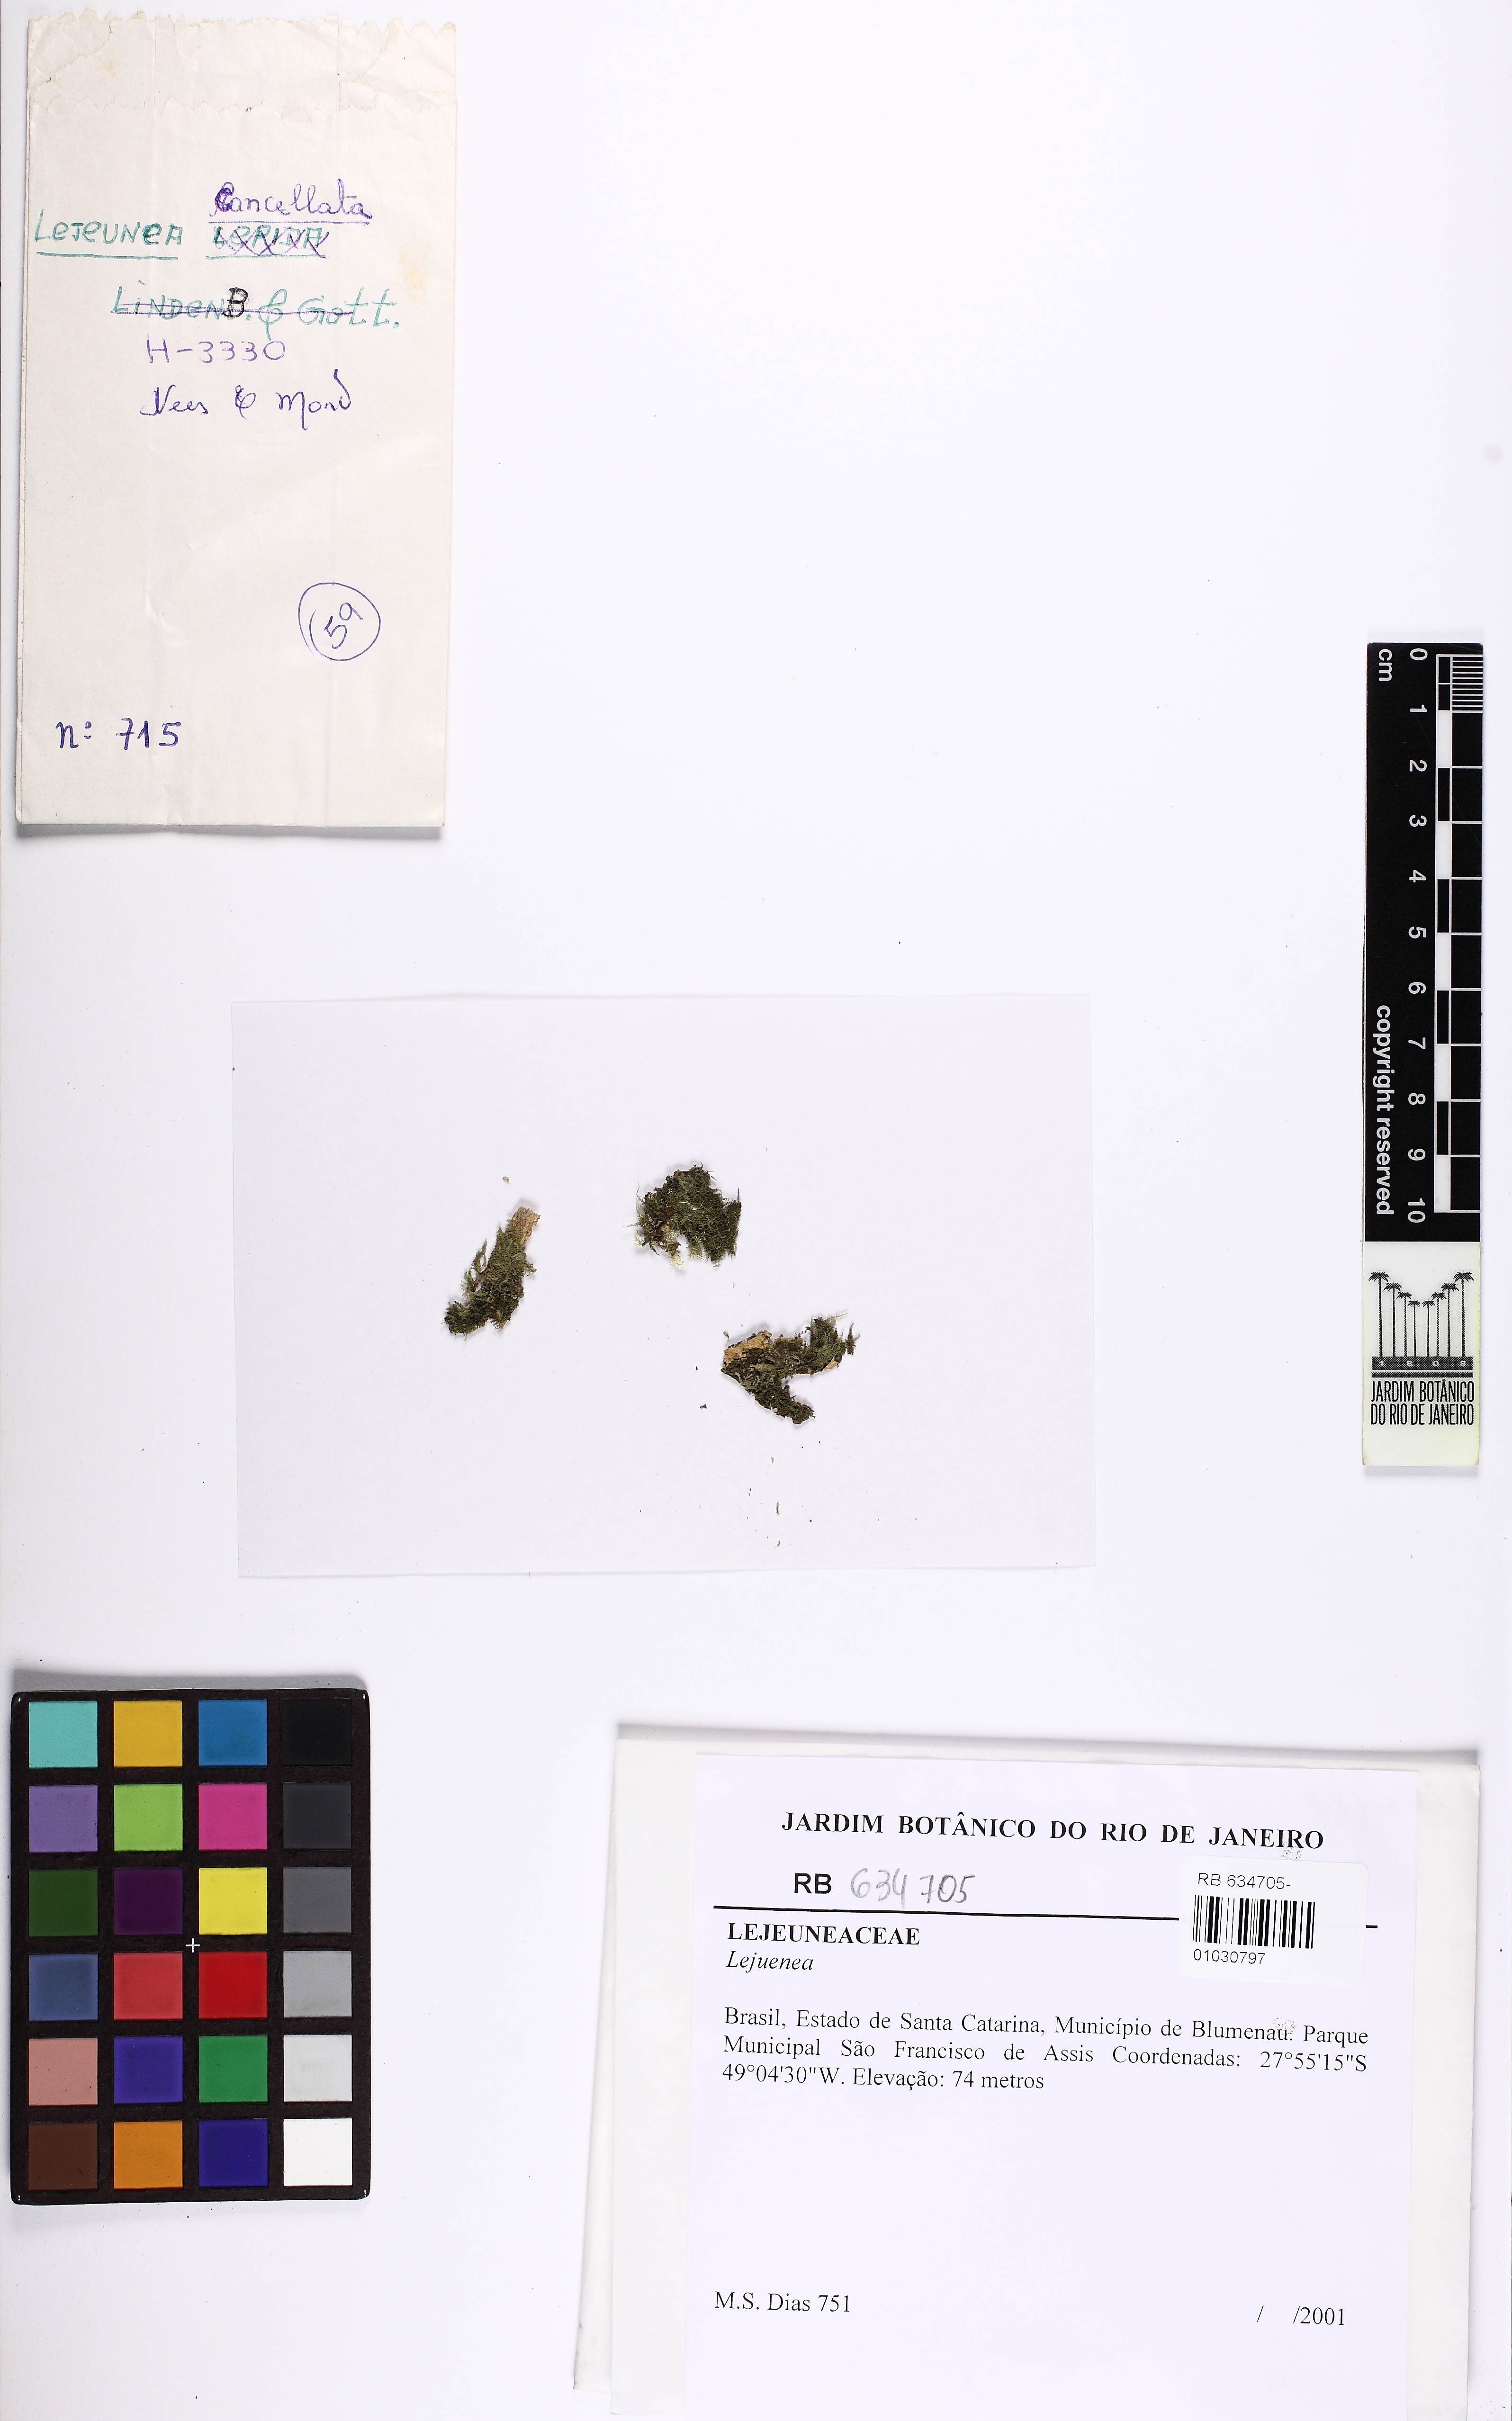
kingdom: Plantae
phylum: Marchantiophyta
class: Jungermanniopsida
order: Porellales
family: Lejeuneaceae
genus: Lejeunea
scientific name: Lejeunea
